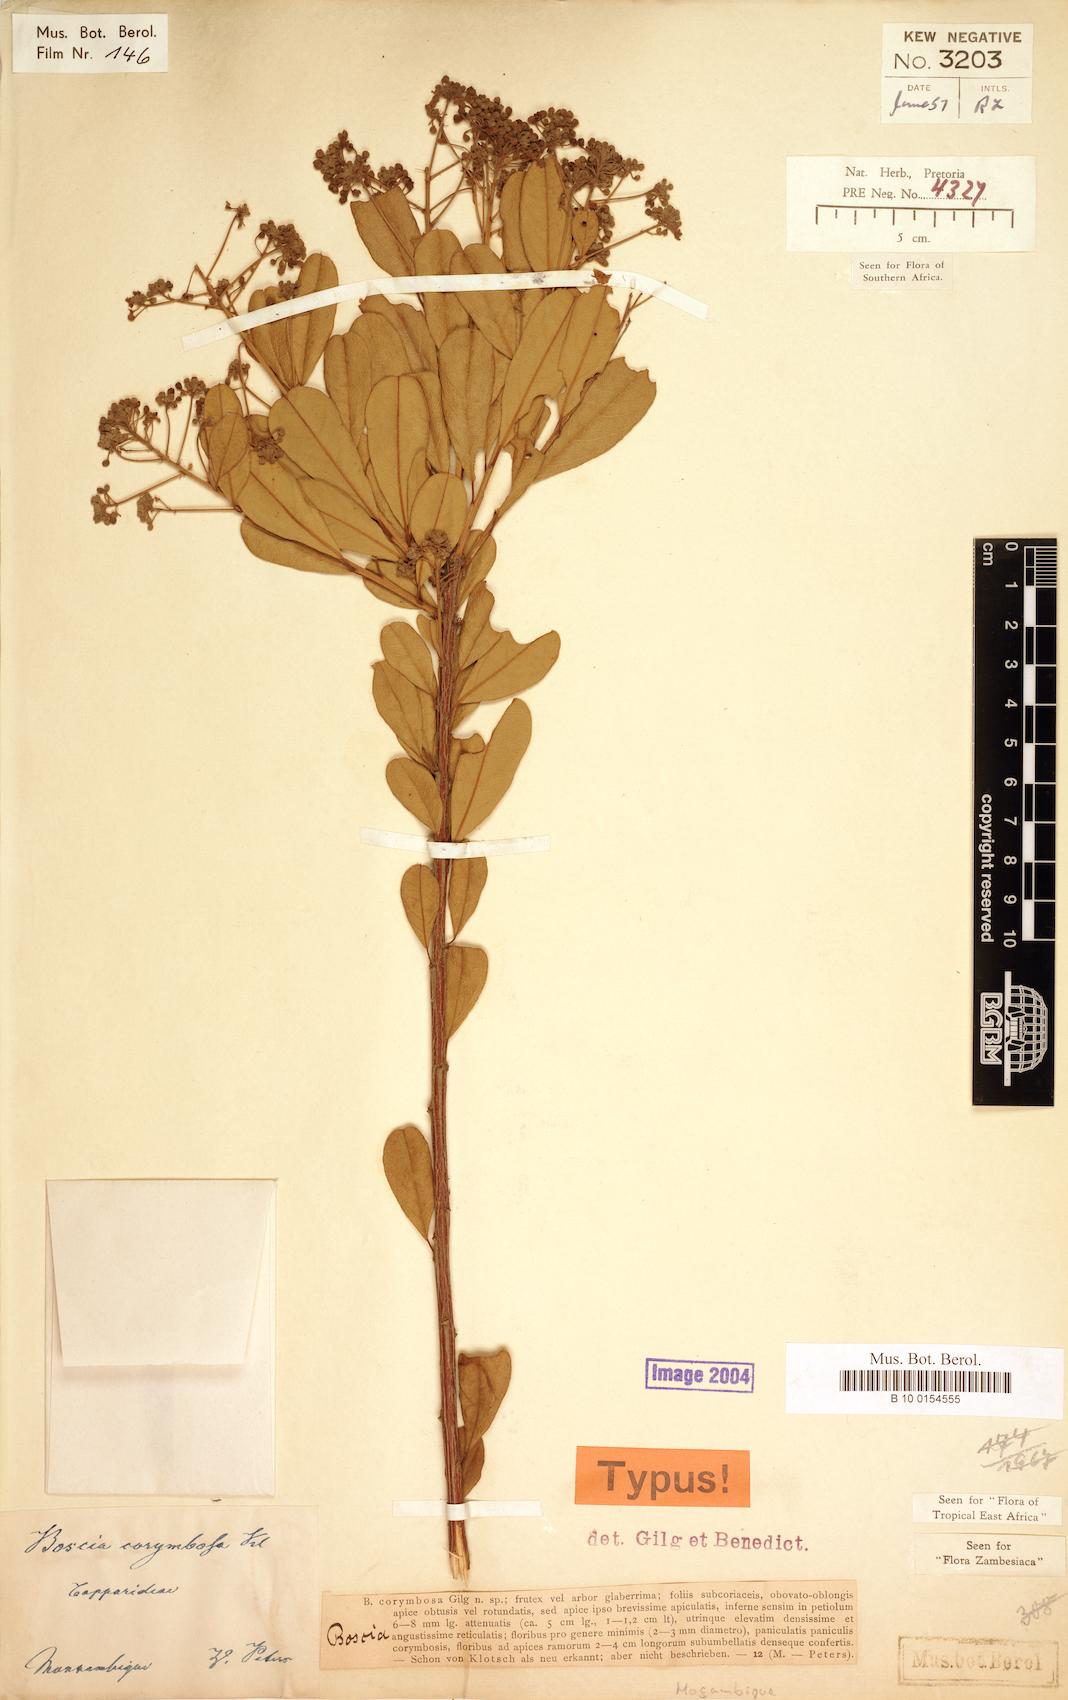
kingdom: Plantae
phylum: Tracheophyta
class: Magnoliopsida
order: Brassicales
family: Capparaceae
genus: Boscia
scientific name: Boscia angustifolia
